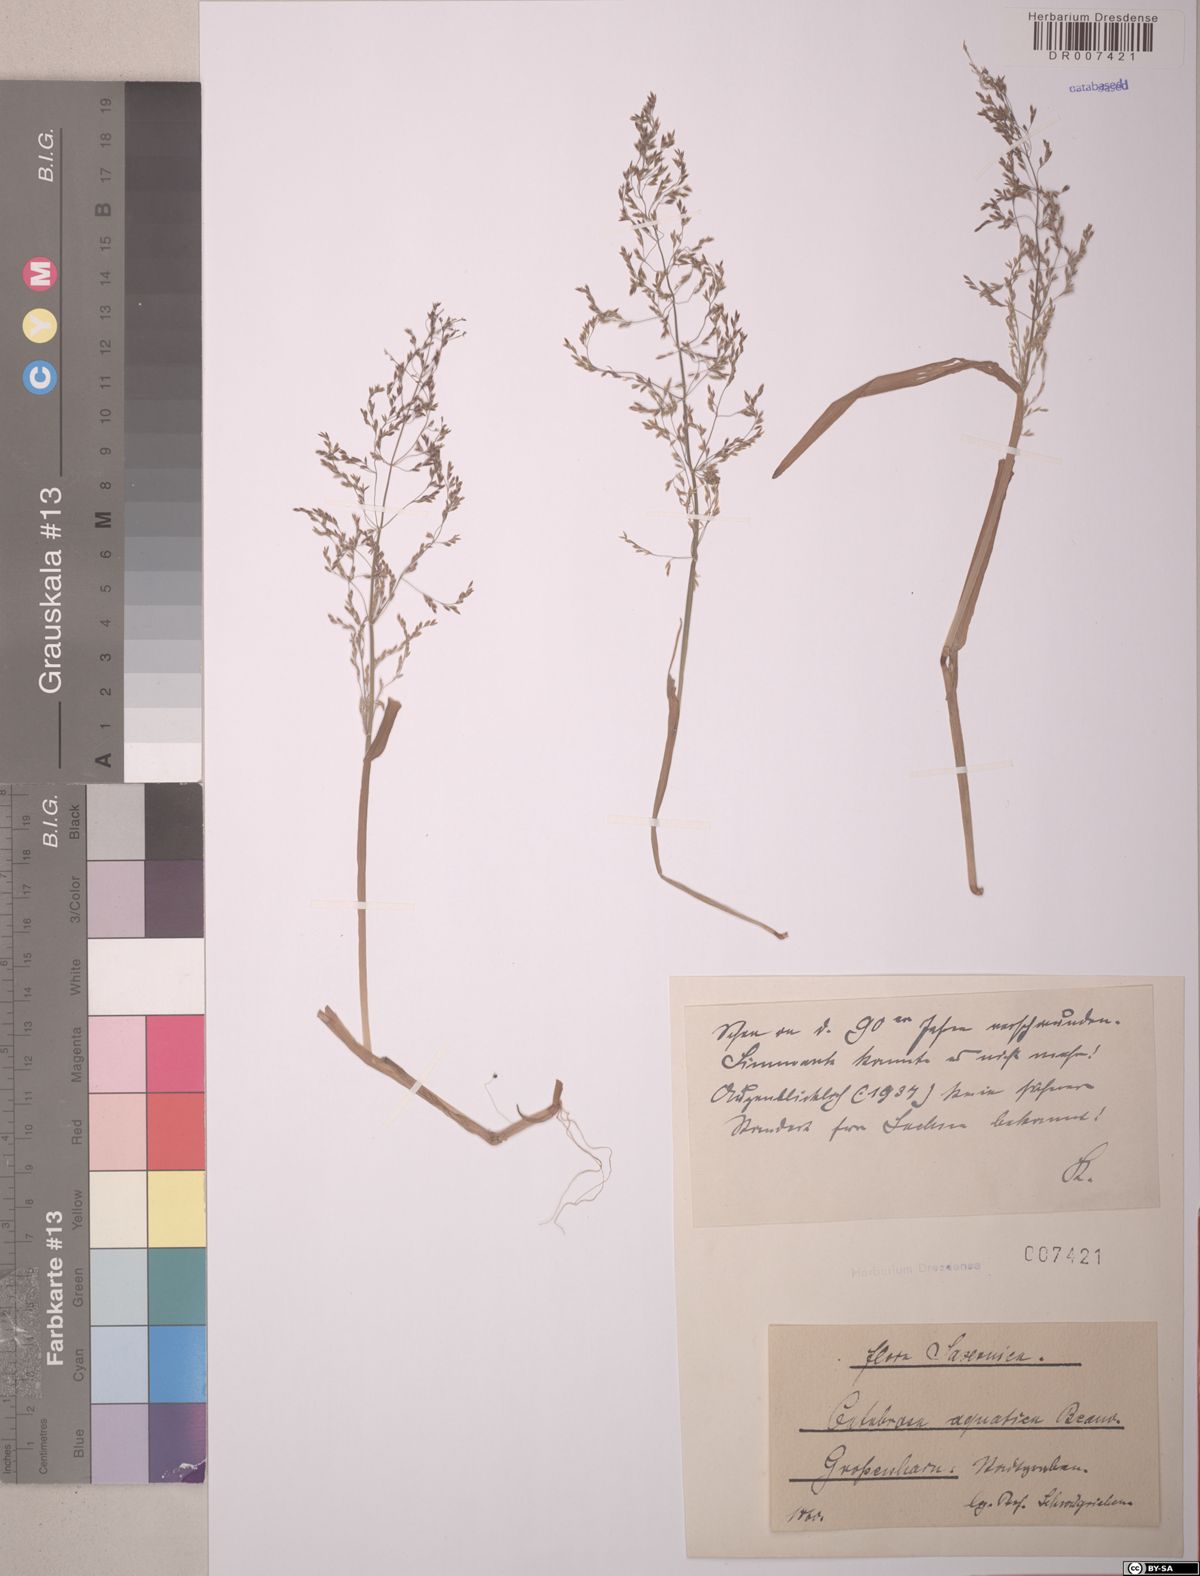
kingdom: Plantae
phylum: Tracheophyta
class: Liliopsida
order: Poales
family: Poaceae
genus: Catabrosa
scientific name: Catabrosa aquatica
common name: Whorl-grass
